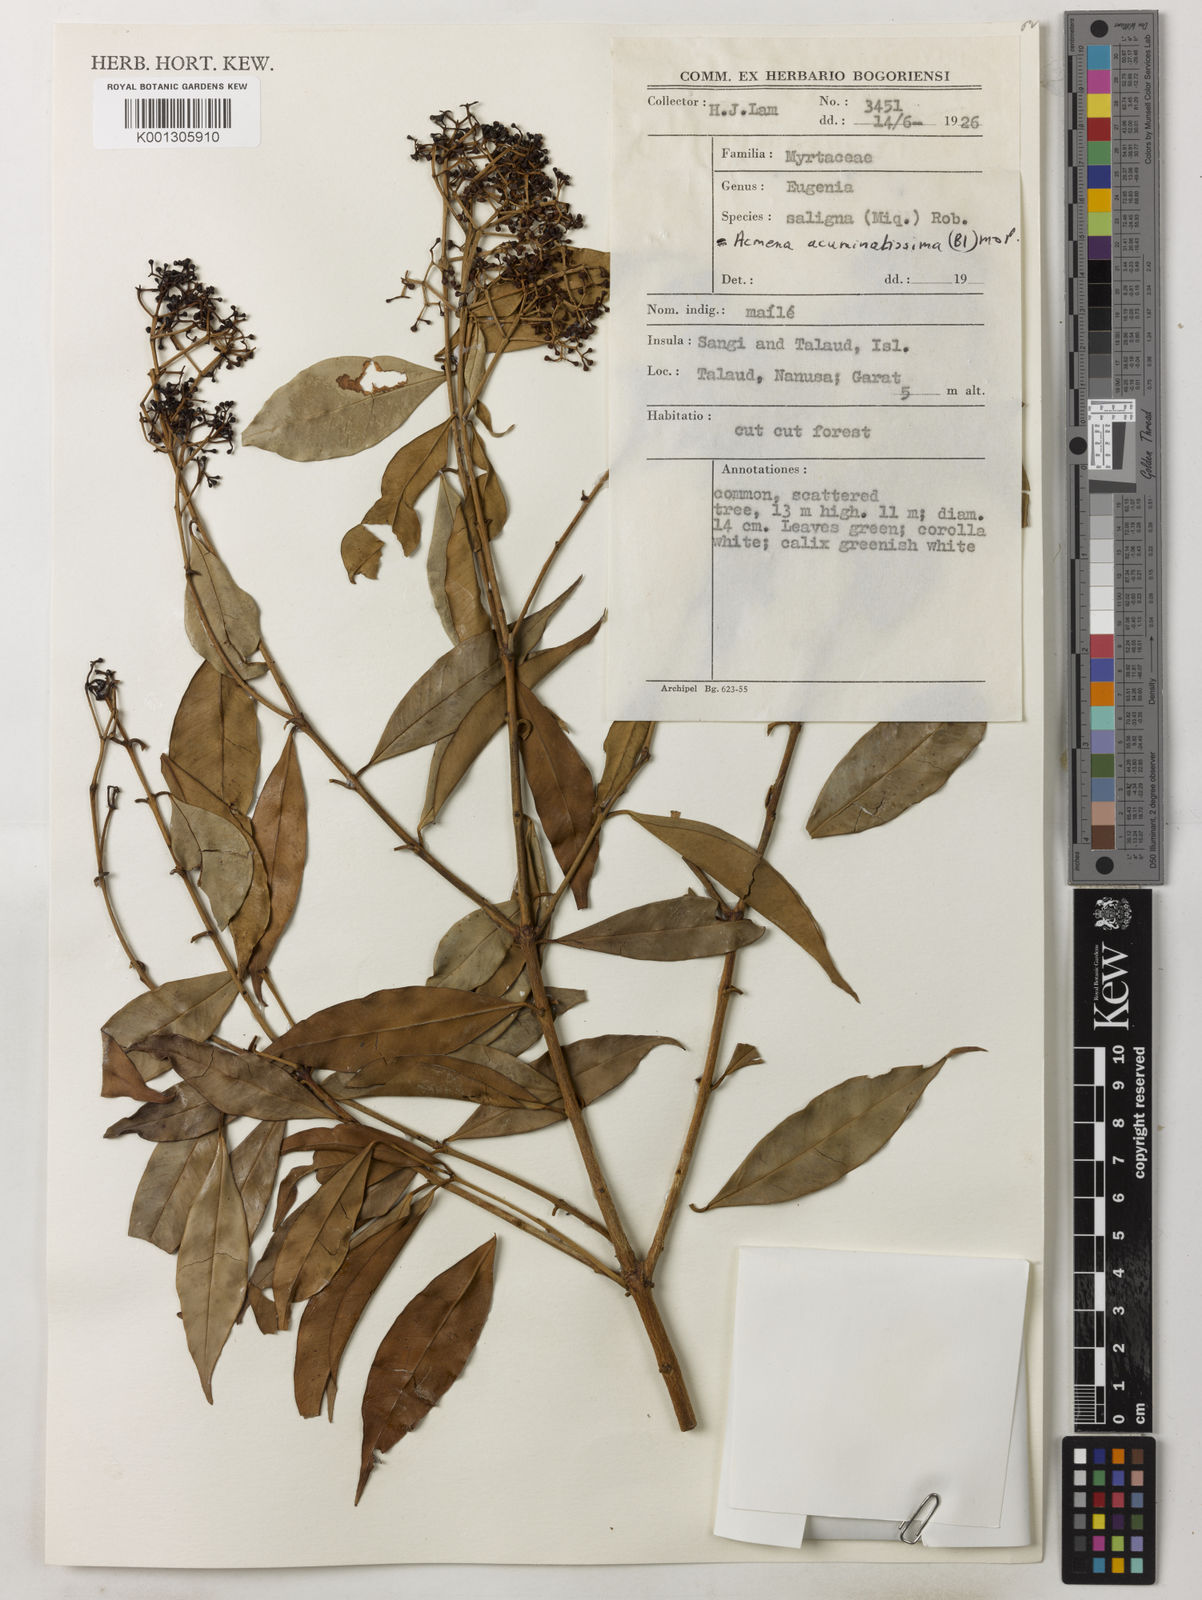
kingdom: Plantae
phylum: Tracheophyta
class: Magnoliopsida
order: Myrtales
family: Myrtaceae
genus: Syzygium
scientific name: Syzygium acuminatissimum
